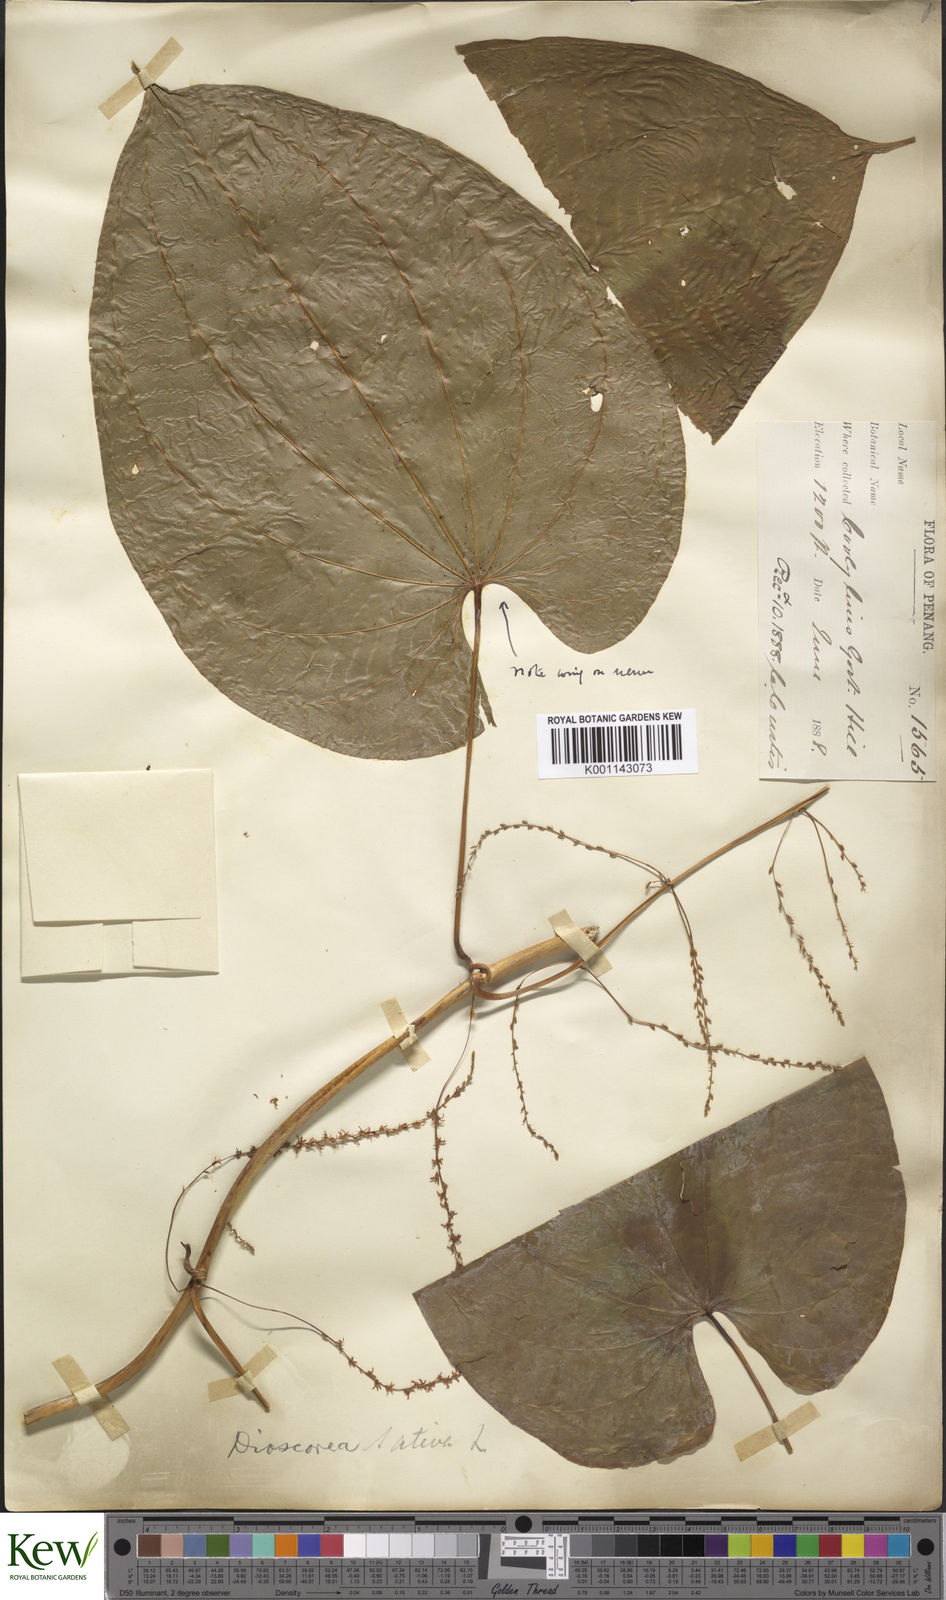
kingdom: Plantae
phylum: Tracheophyta
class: Liliopsida
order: Dioscoreales
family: Dioscoreaceae
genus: Dioscorea
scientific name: Dioscorea bulbifera
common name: Air yam
